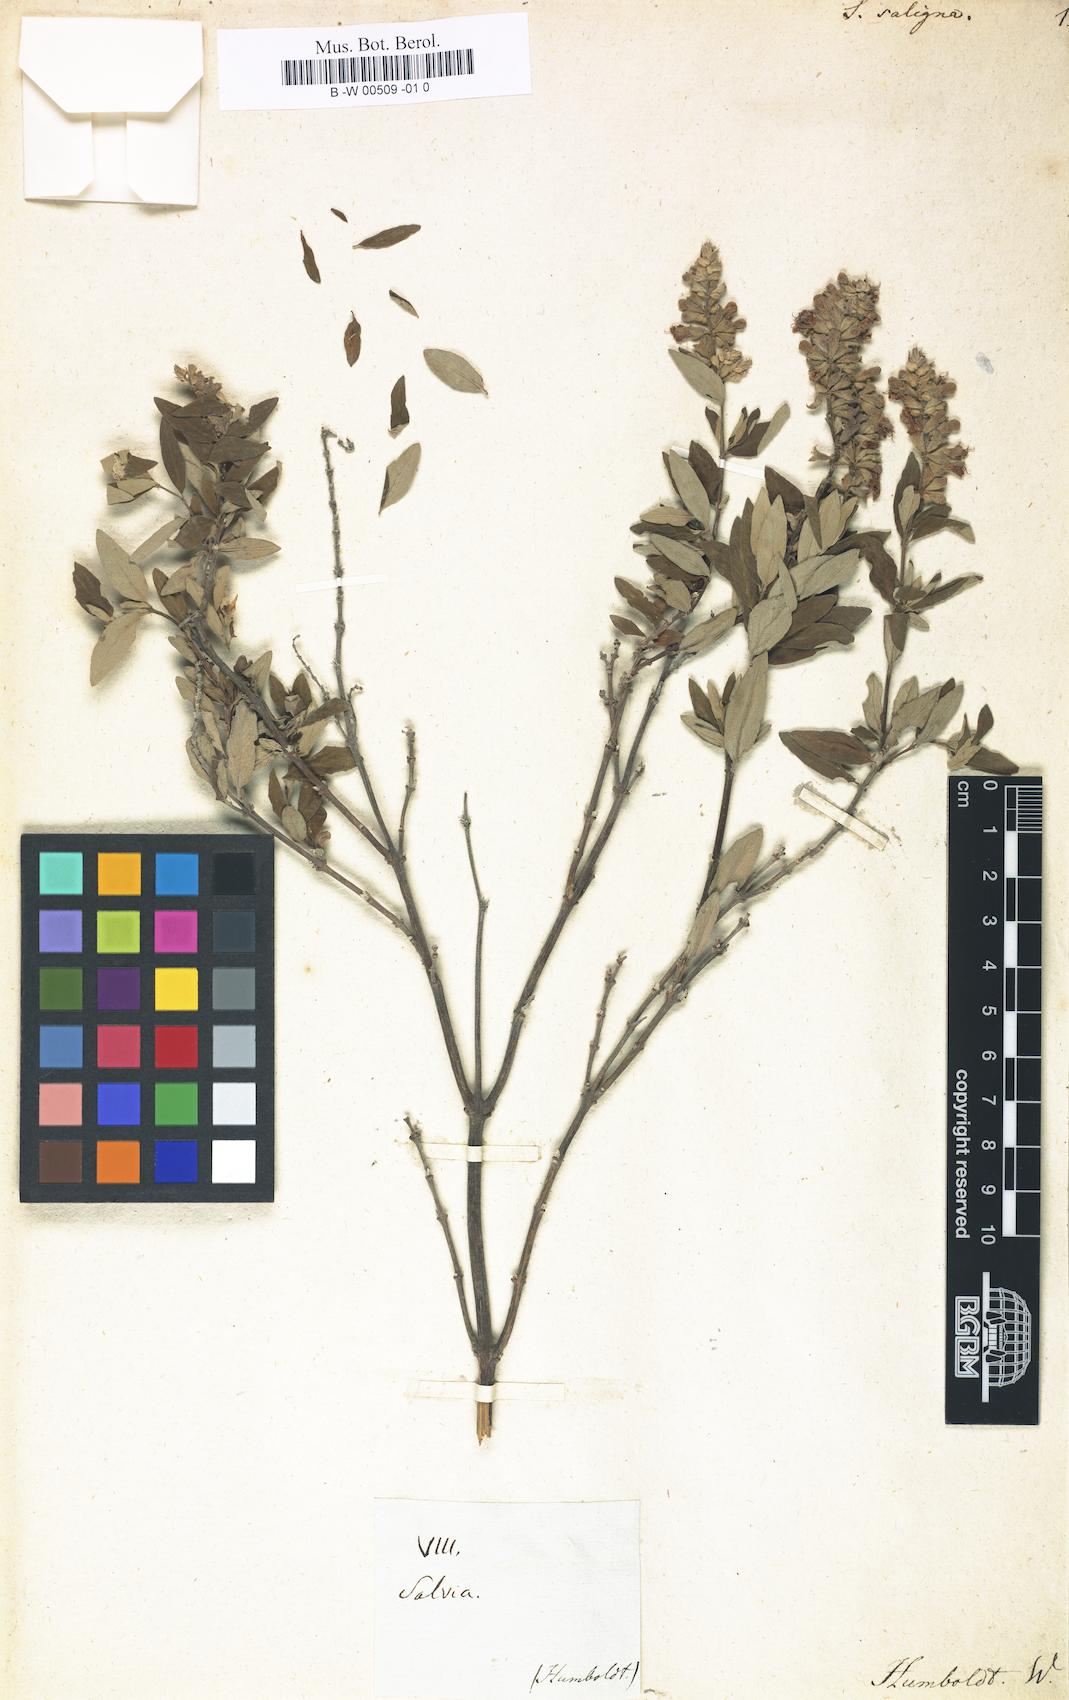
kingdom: Plantae
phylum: Tracheophyta
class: Magnoliopsida
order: Lamiales
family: Lamiaceae
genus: Salvia
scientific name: Salvia humboldtiana
